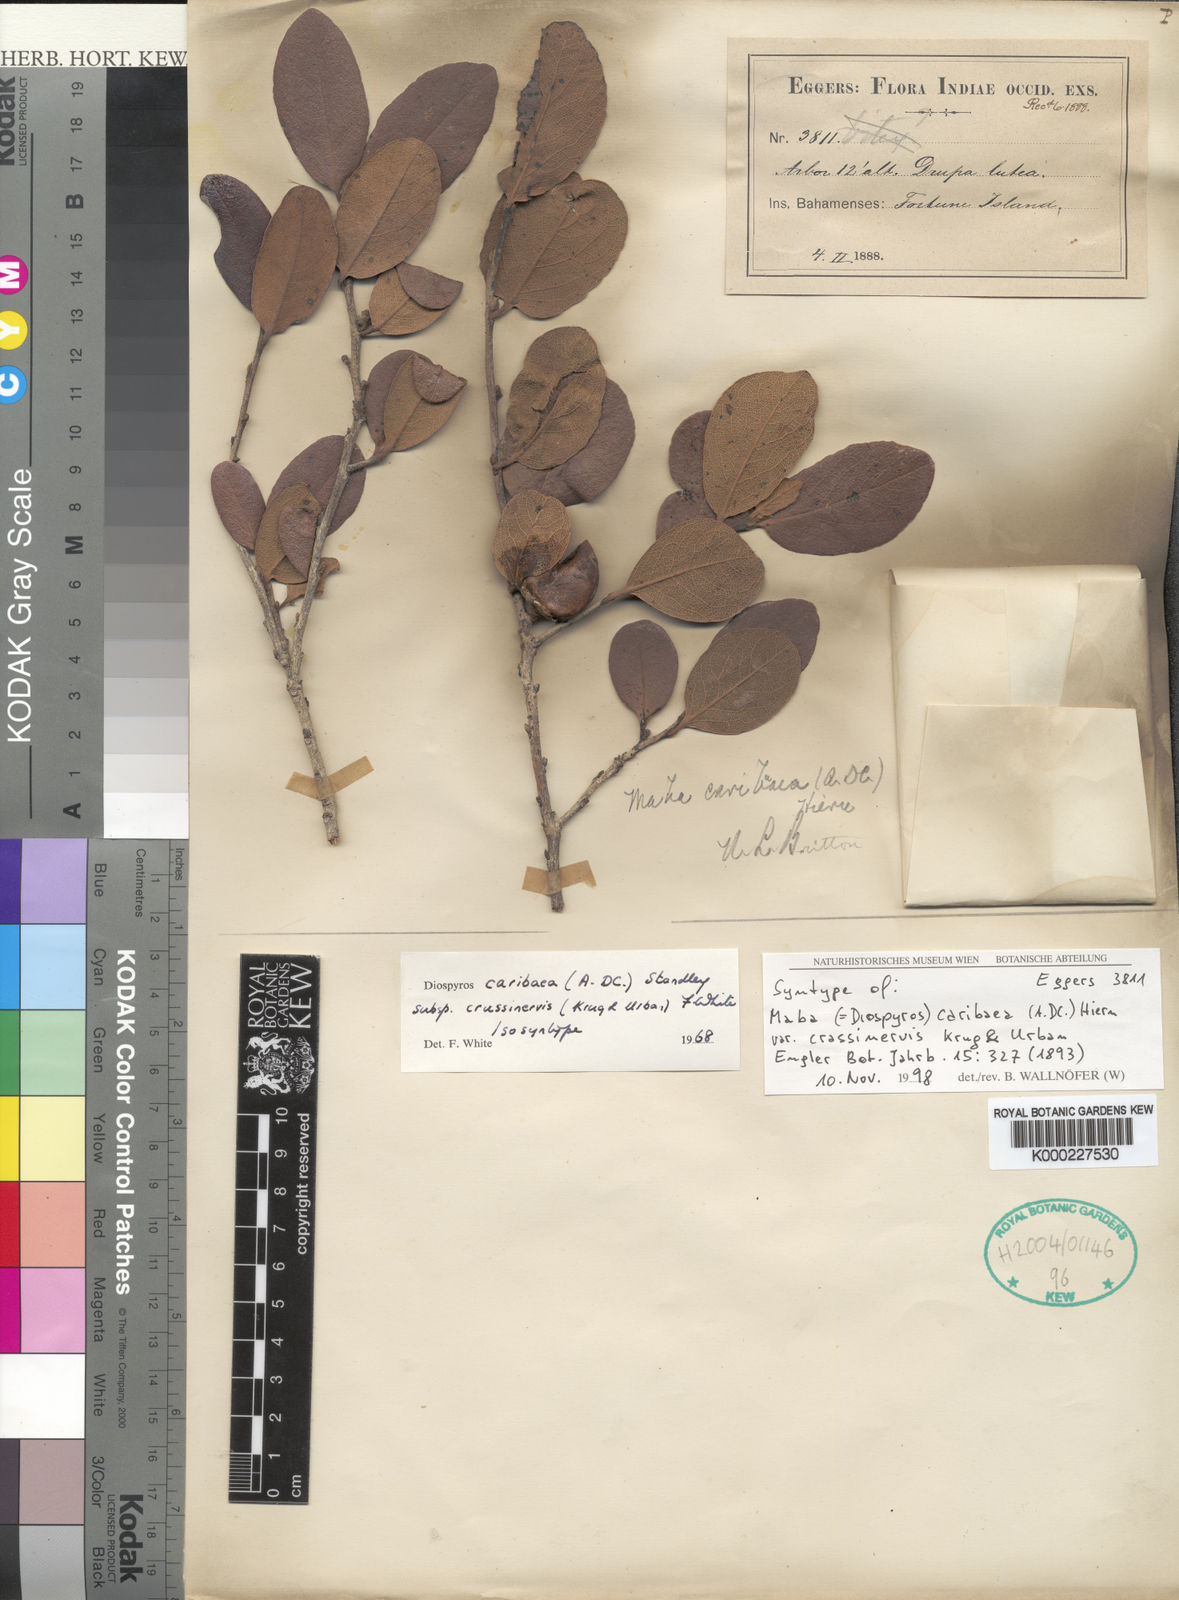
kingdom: Plantae
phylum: Tracheophyta
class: Magnoliopsida
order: Ericales
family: Ebenaceae
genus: Diospyros
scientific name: Diospyros caribaea
